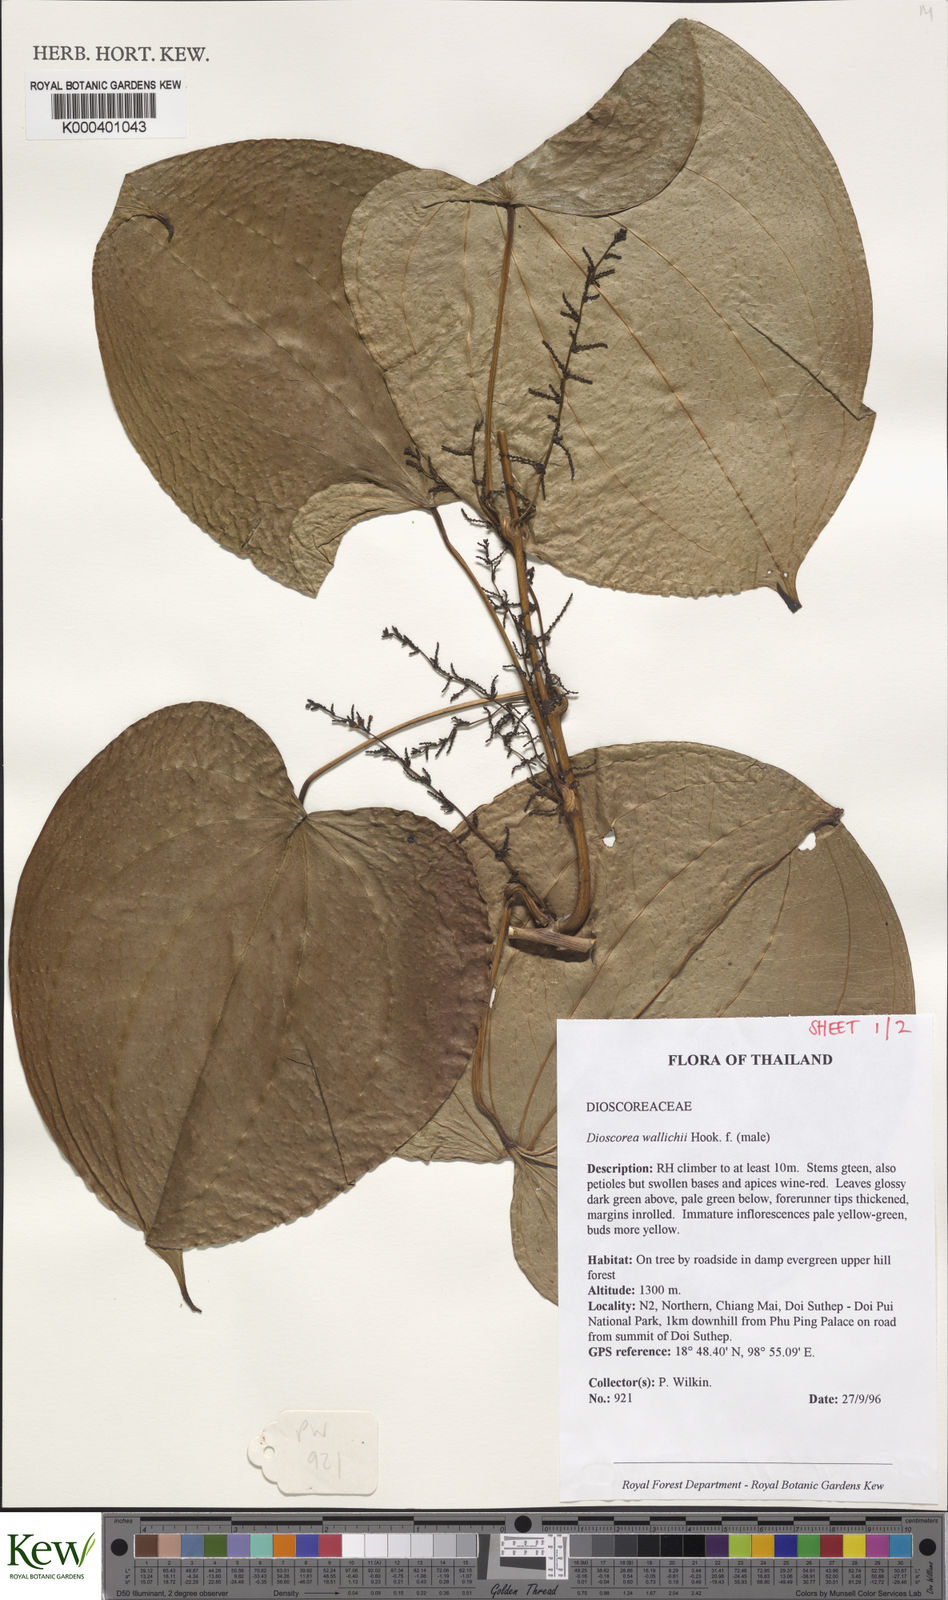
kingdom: Plantae
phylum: Tracheophyta
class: Liliopsida
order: Dioscoreales
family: Dioscoreaceae
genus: Dioscorea
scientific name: Dioscorea wallichii
